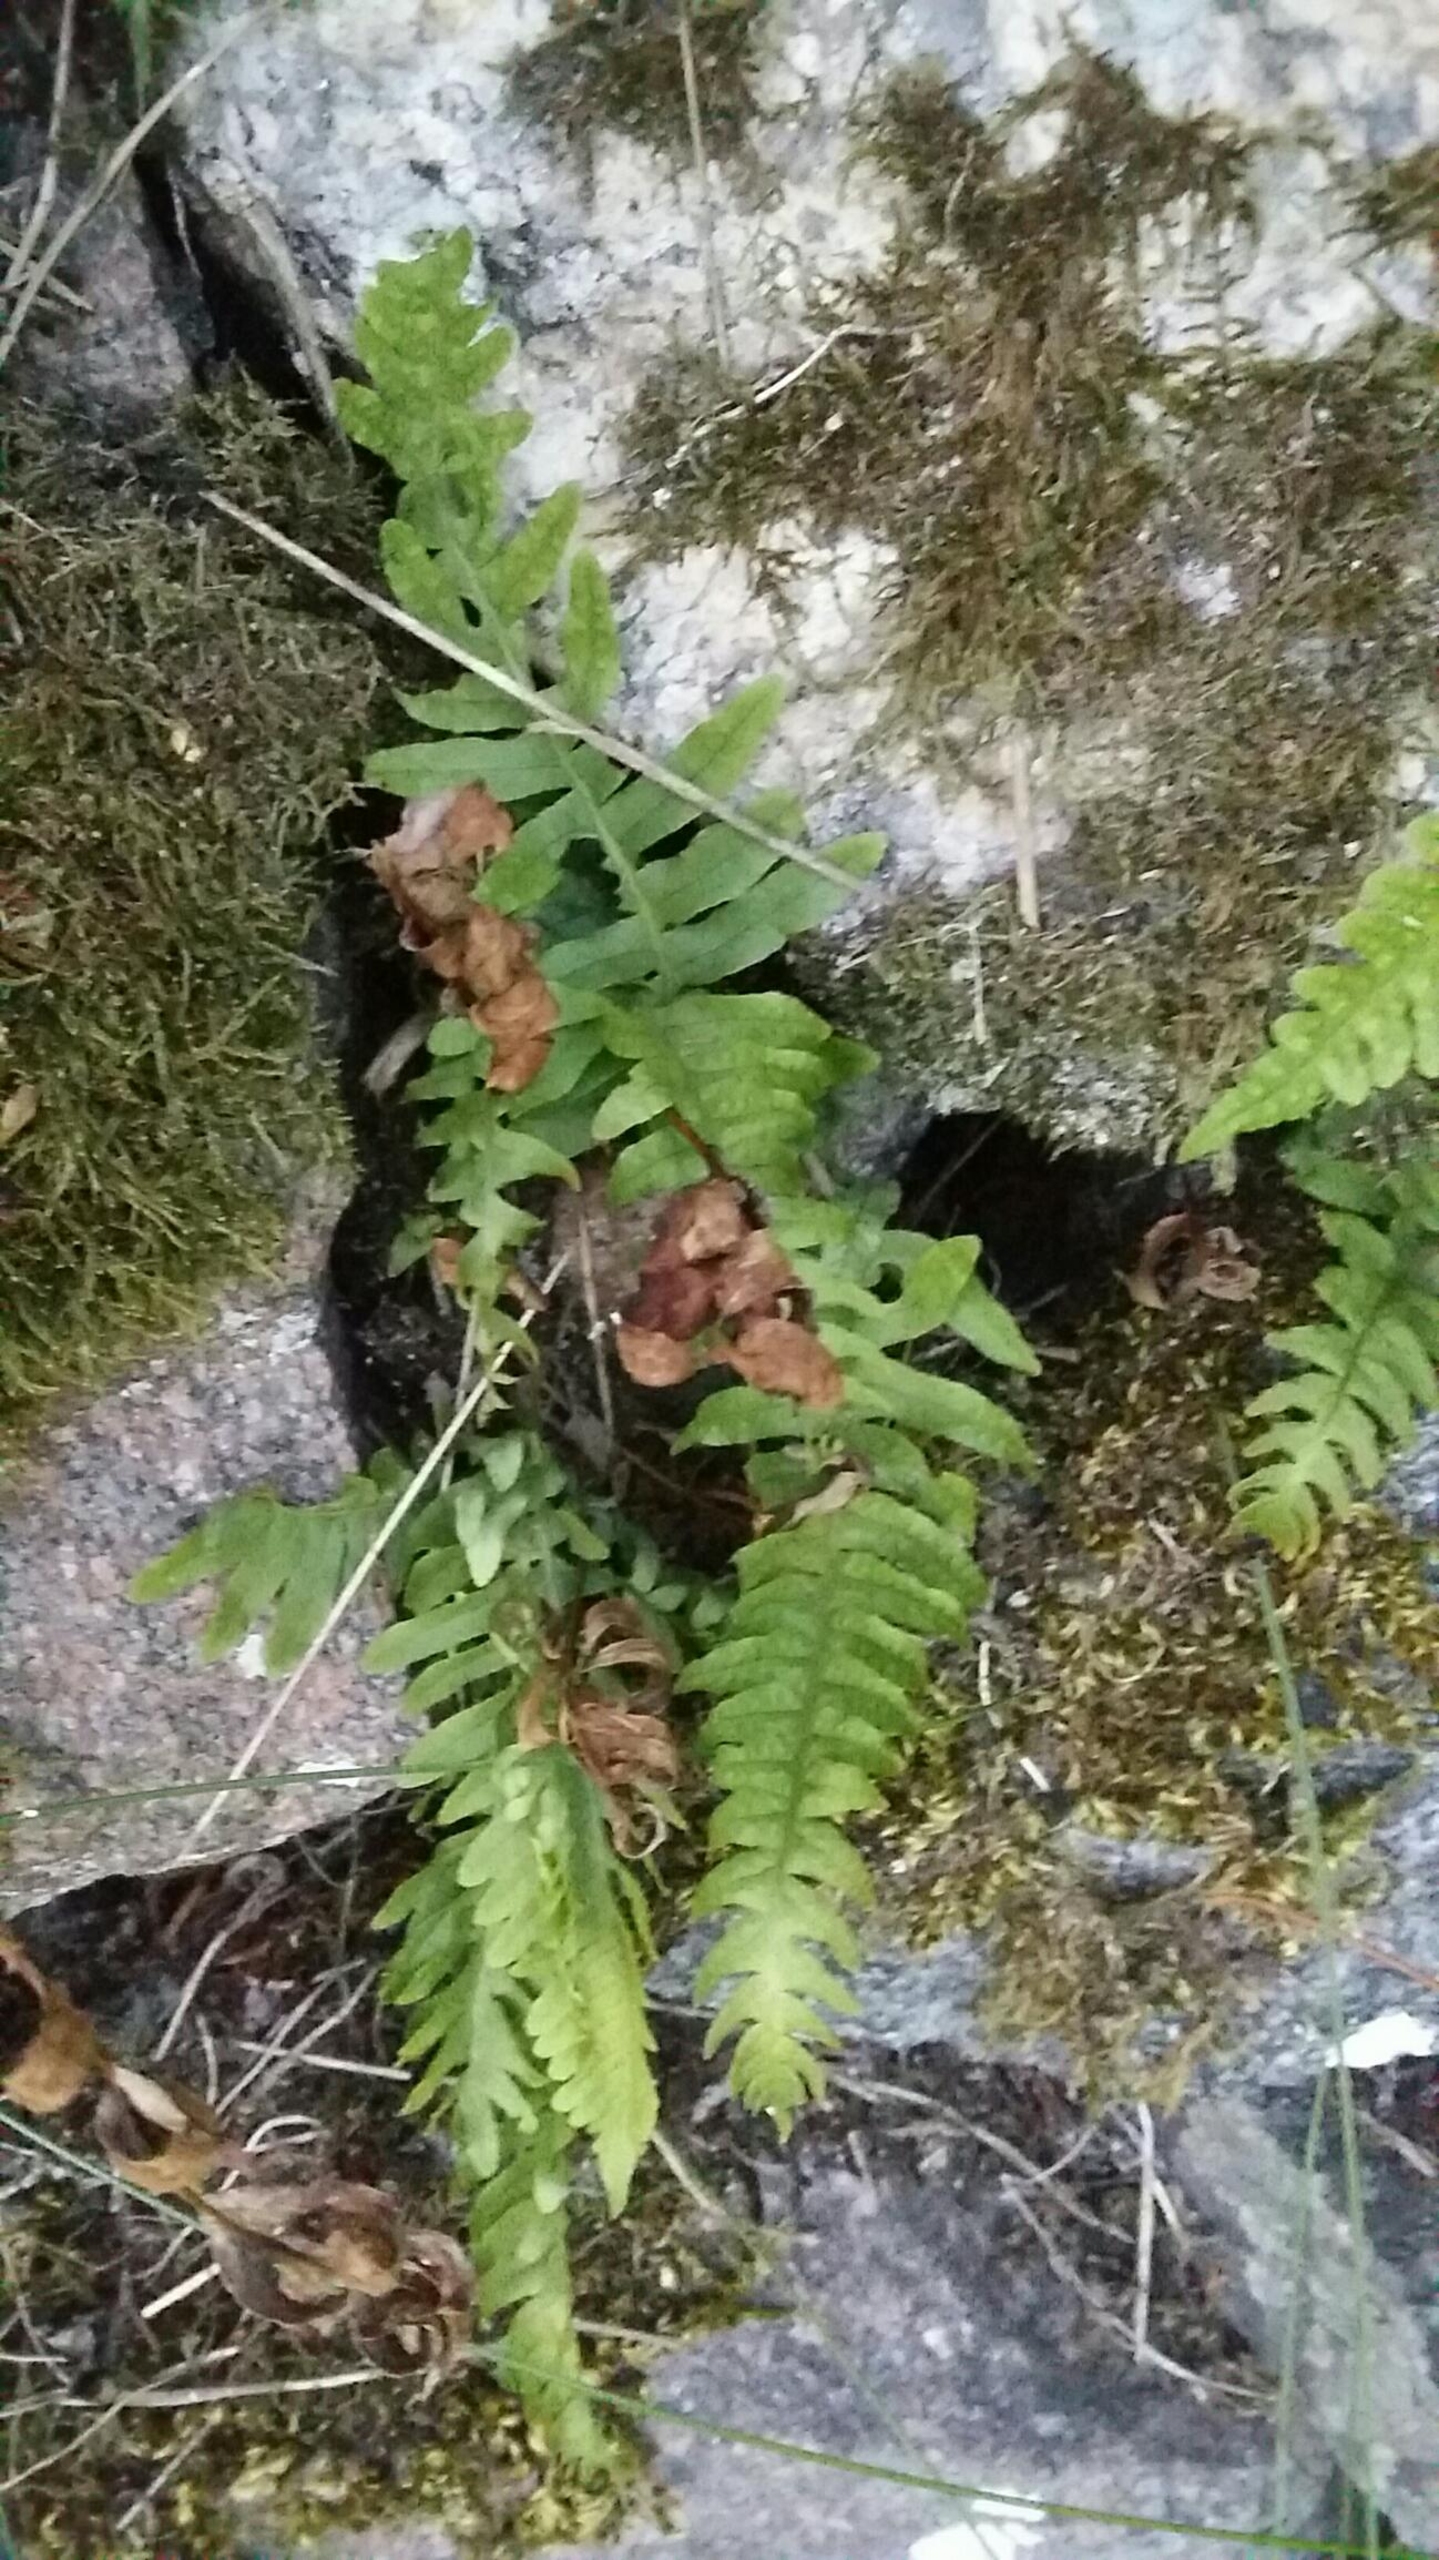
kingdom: Plantae
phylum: Tracheophyta
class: Polypodiopsida
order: Polypodiales
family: Polypodiaceae
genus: Polypodium
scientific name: Polypodium vulgare
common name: Almindelig engelsød
